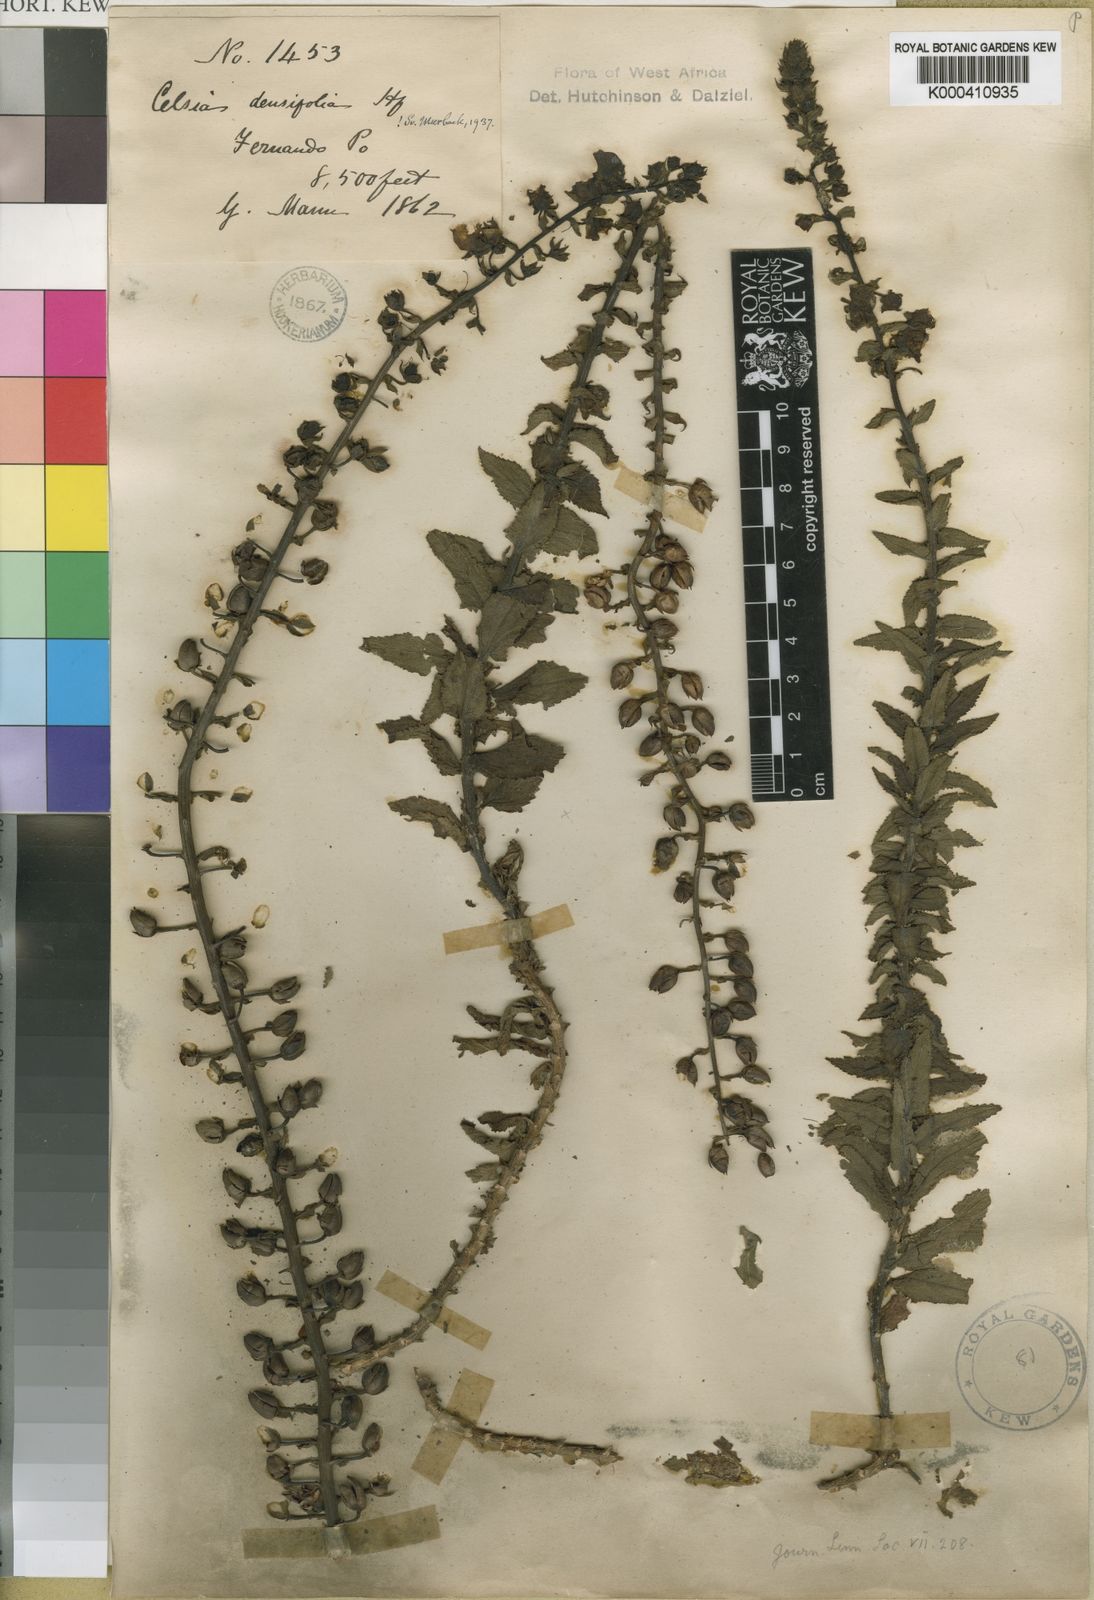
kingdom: Plantae
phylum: Tracheophyta
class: Magnoliopsida
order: Lamiales
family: Scrophulariaceae
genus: Rhabdotosperma
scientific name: Rhabdotosperma densifolia
